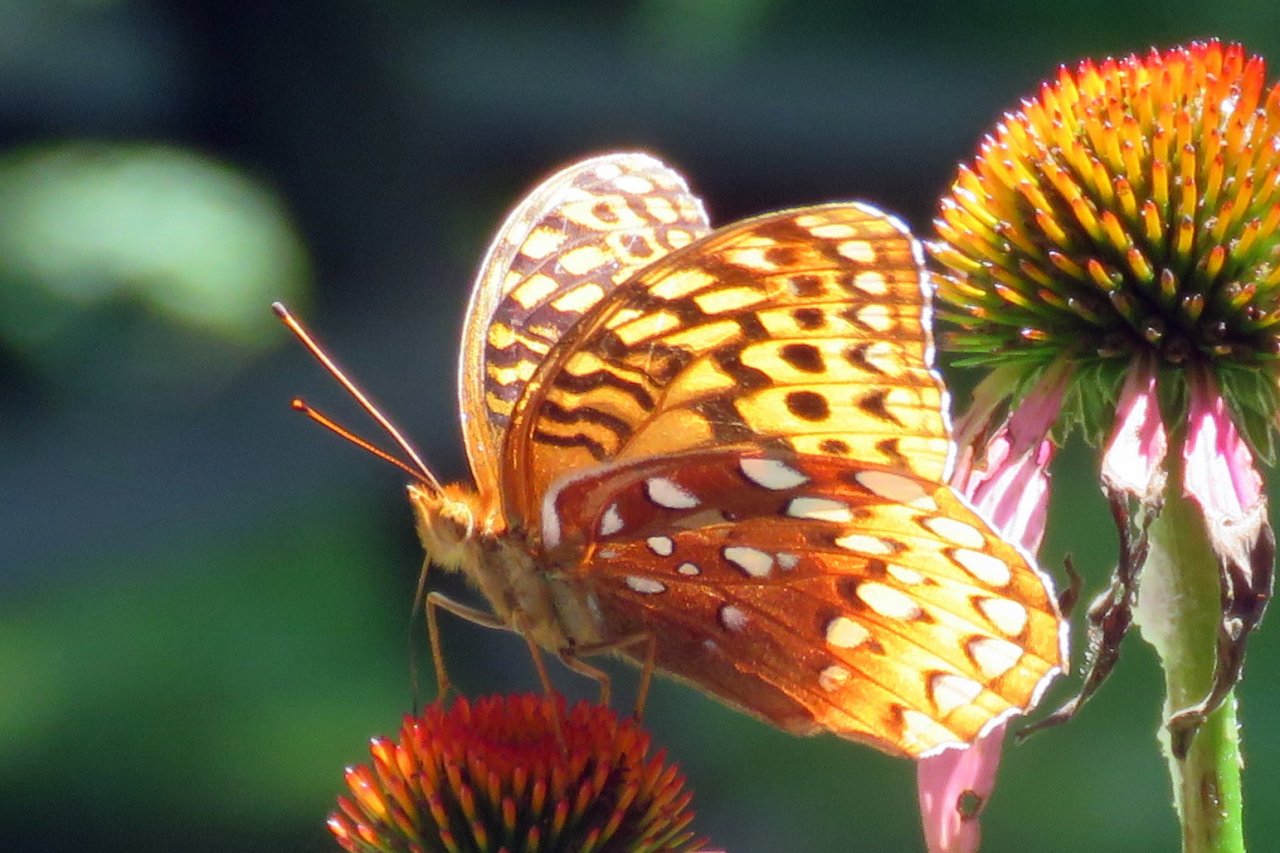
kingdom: Animalia
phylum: Arthropoda
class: Insecta
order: Lepidoptera
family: Nymphalidae
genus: Speyeria
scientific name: Speyeria cybele
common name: Great Spangled Fritillary
